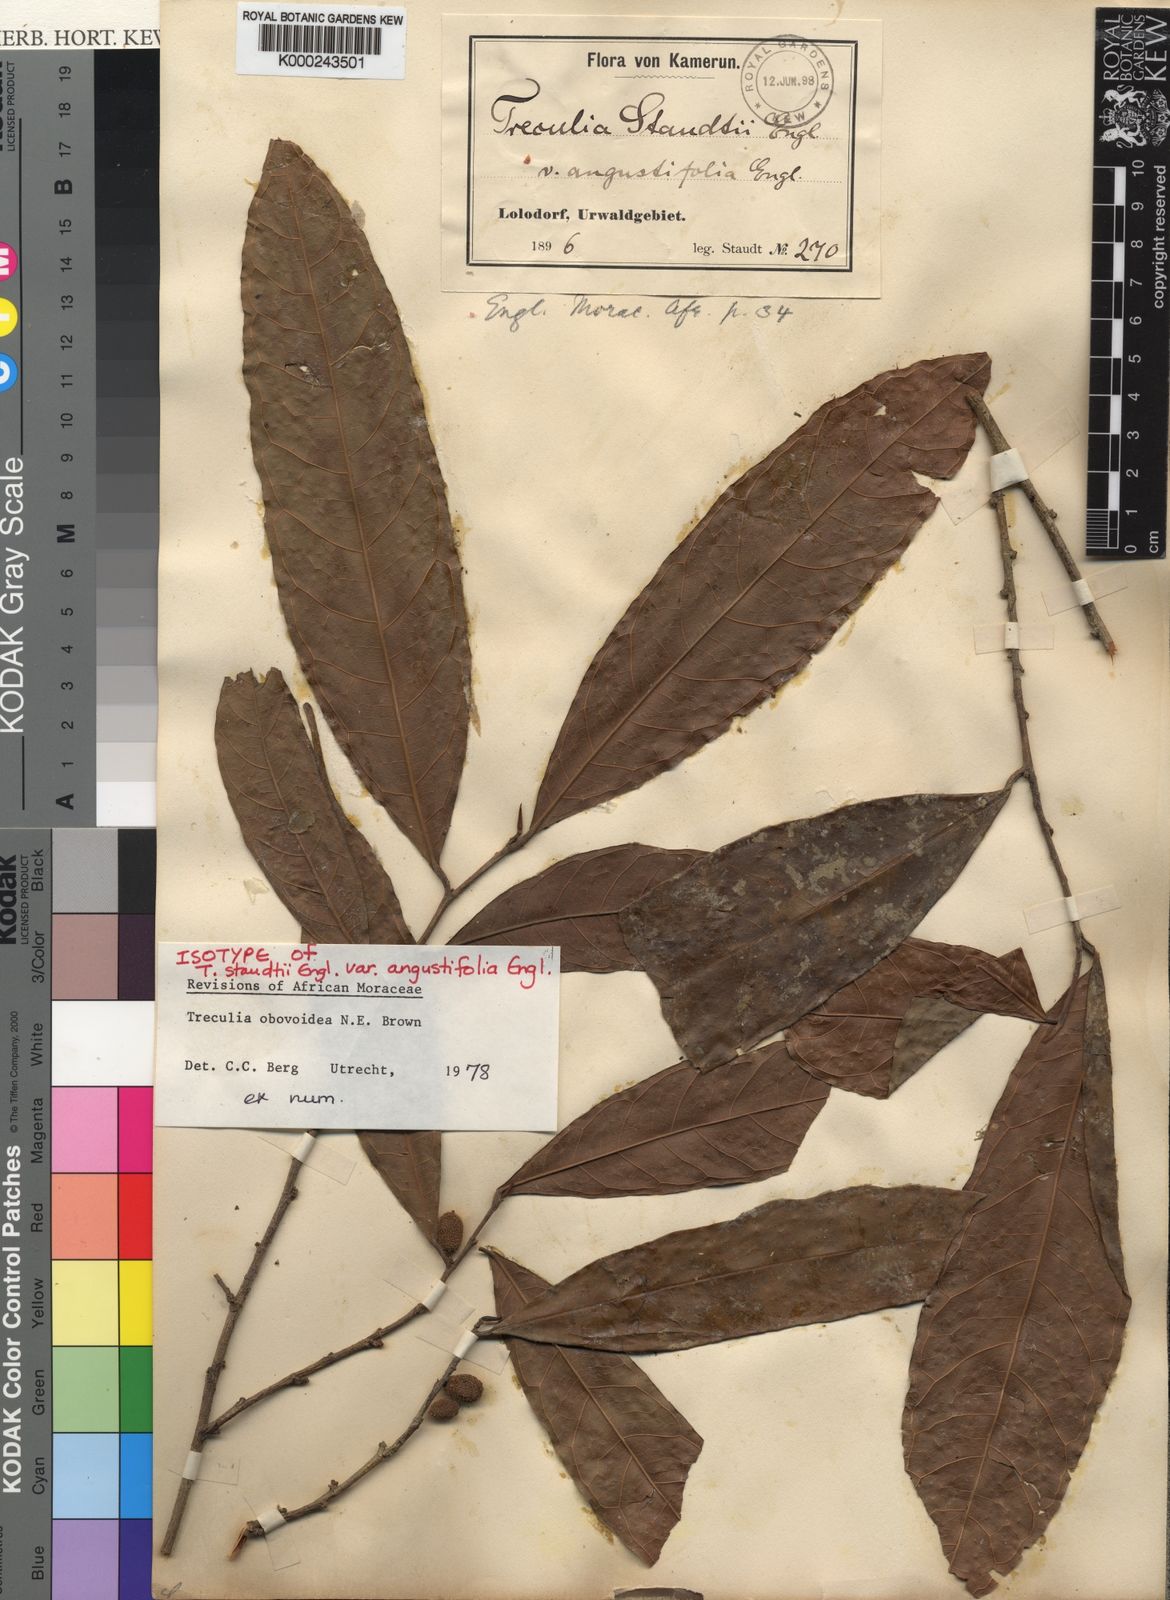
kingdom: Plantae
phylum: Tracheophyta
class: Magnoliopsida
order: Rosales
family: Moraceae
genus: Treculia
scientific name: Treculia obovoidea
